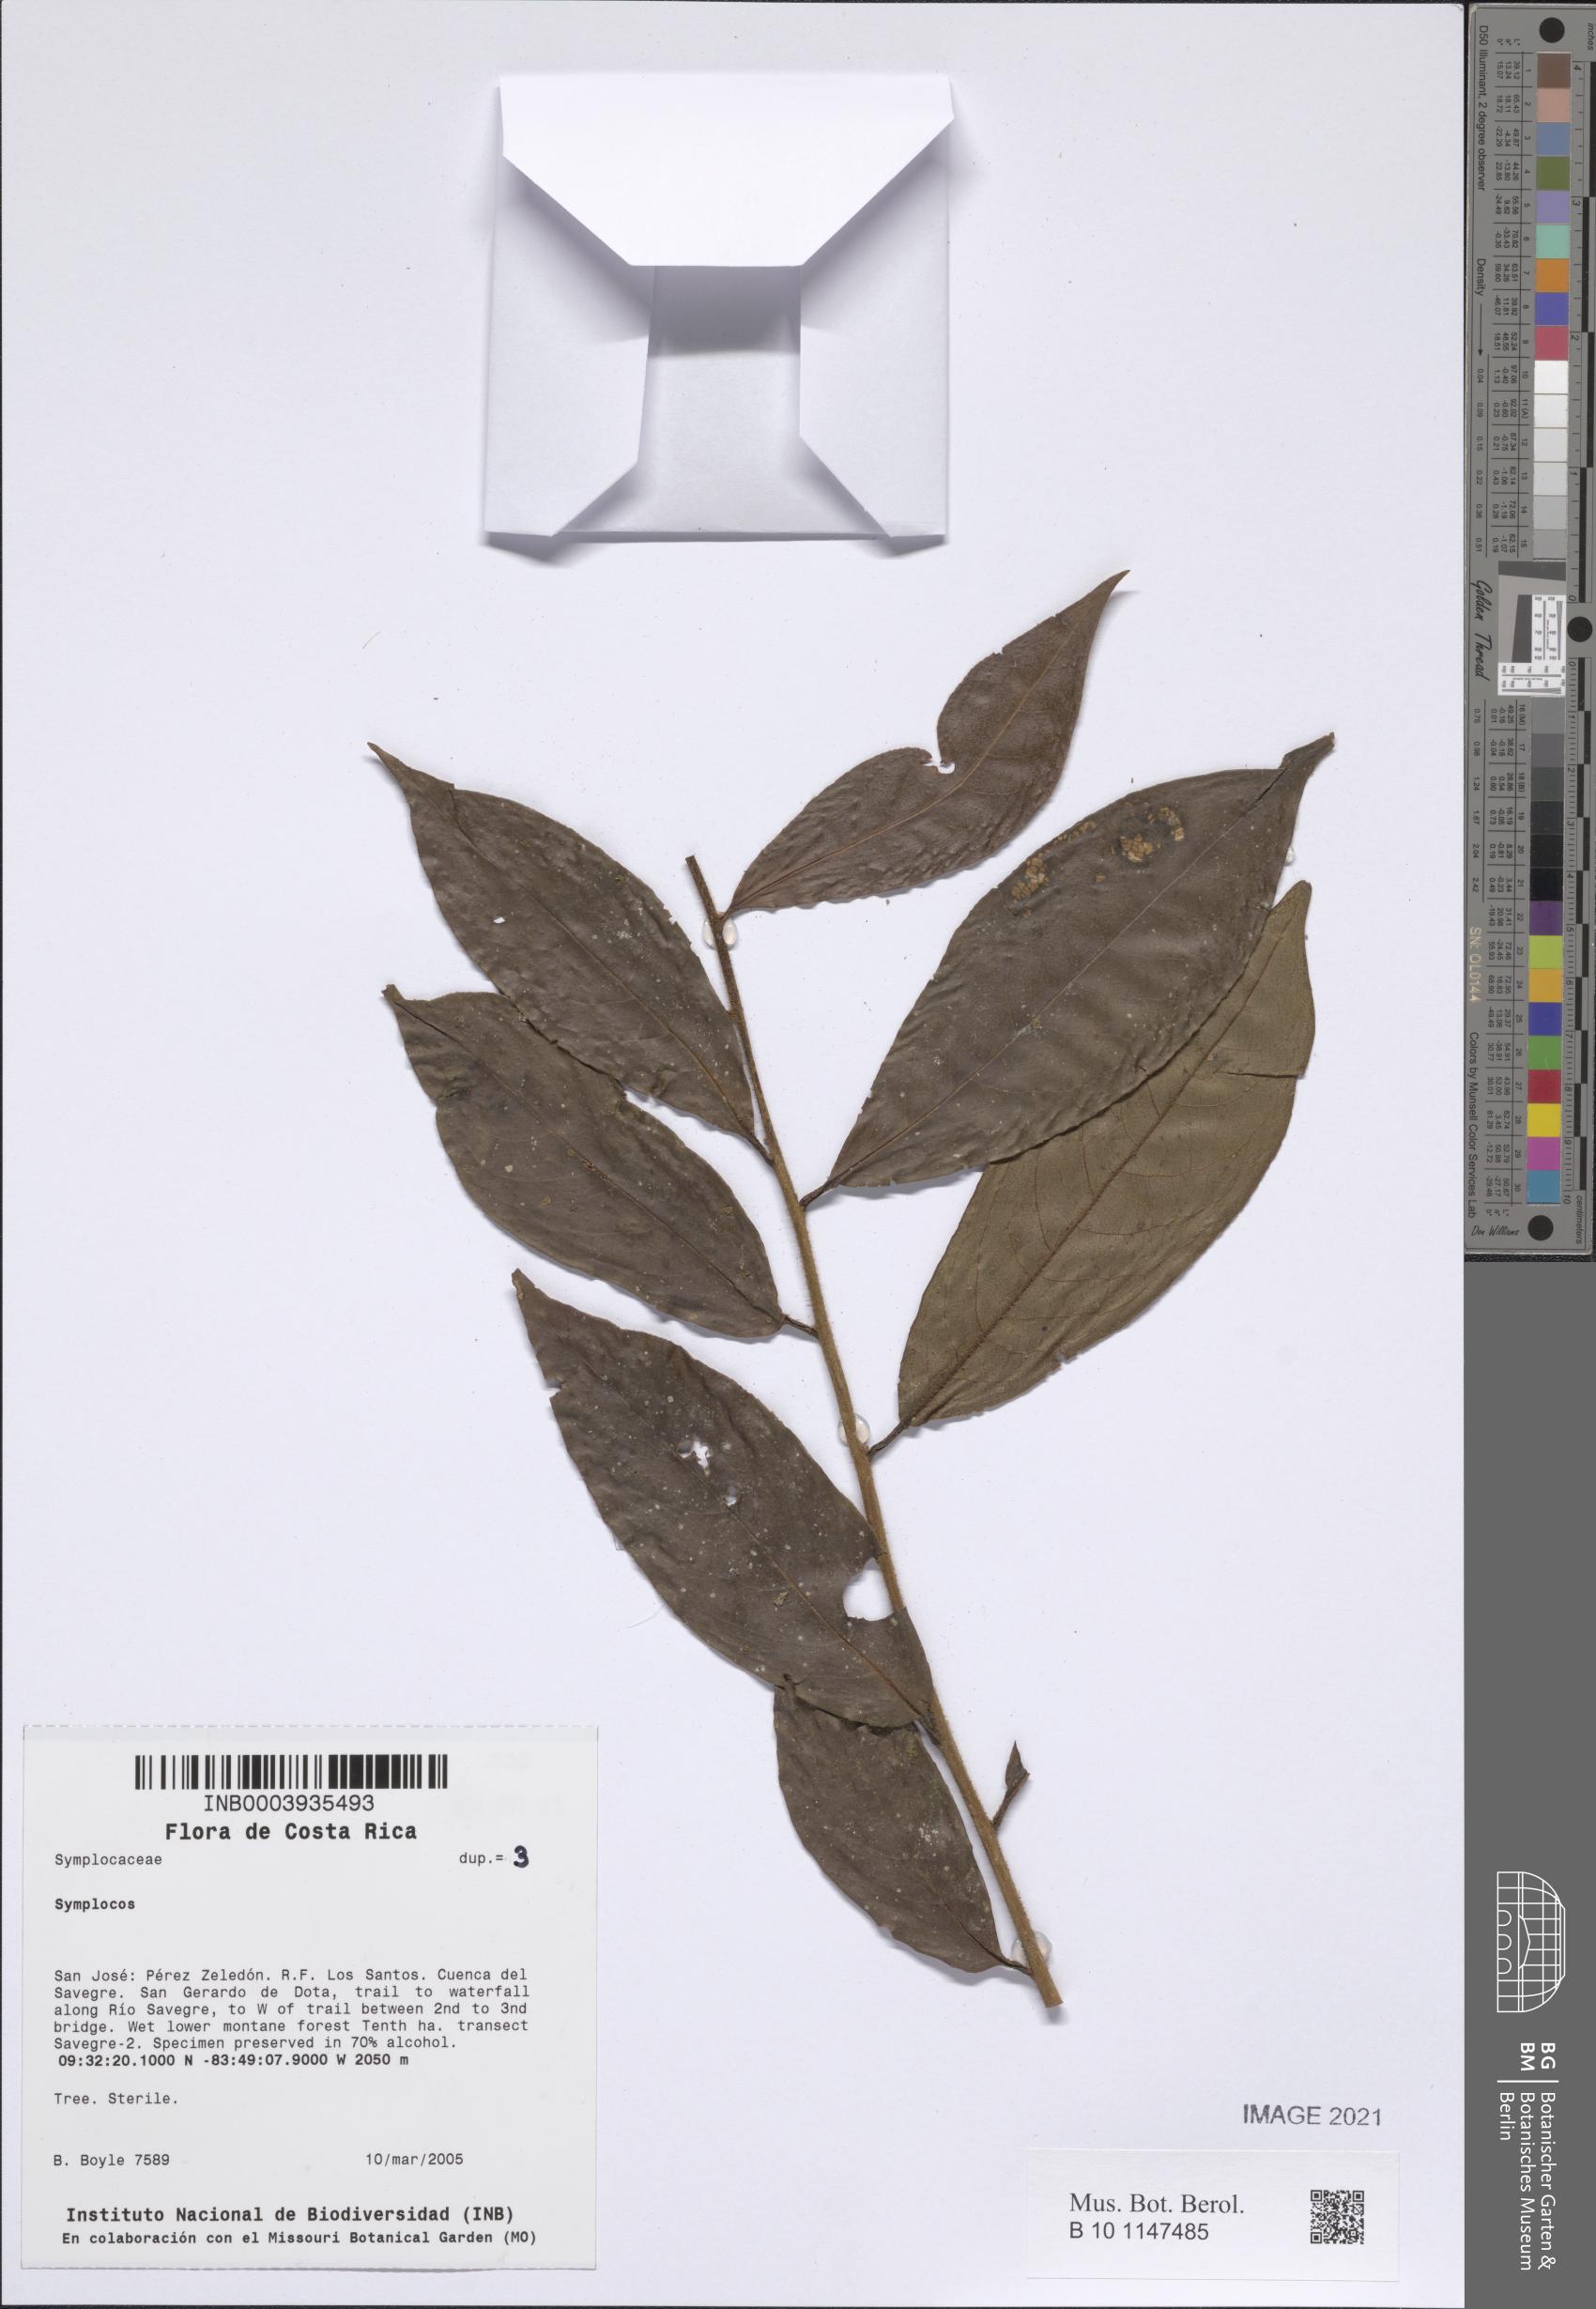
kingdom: Plantae
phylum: Tracheophyta
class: Magnoliopsida
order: Ericales
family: Symplocaceae
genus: Symplocos
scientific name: Symplocos
